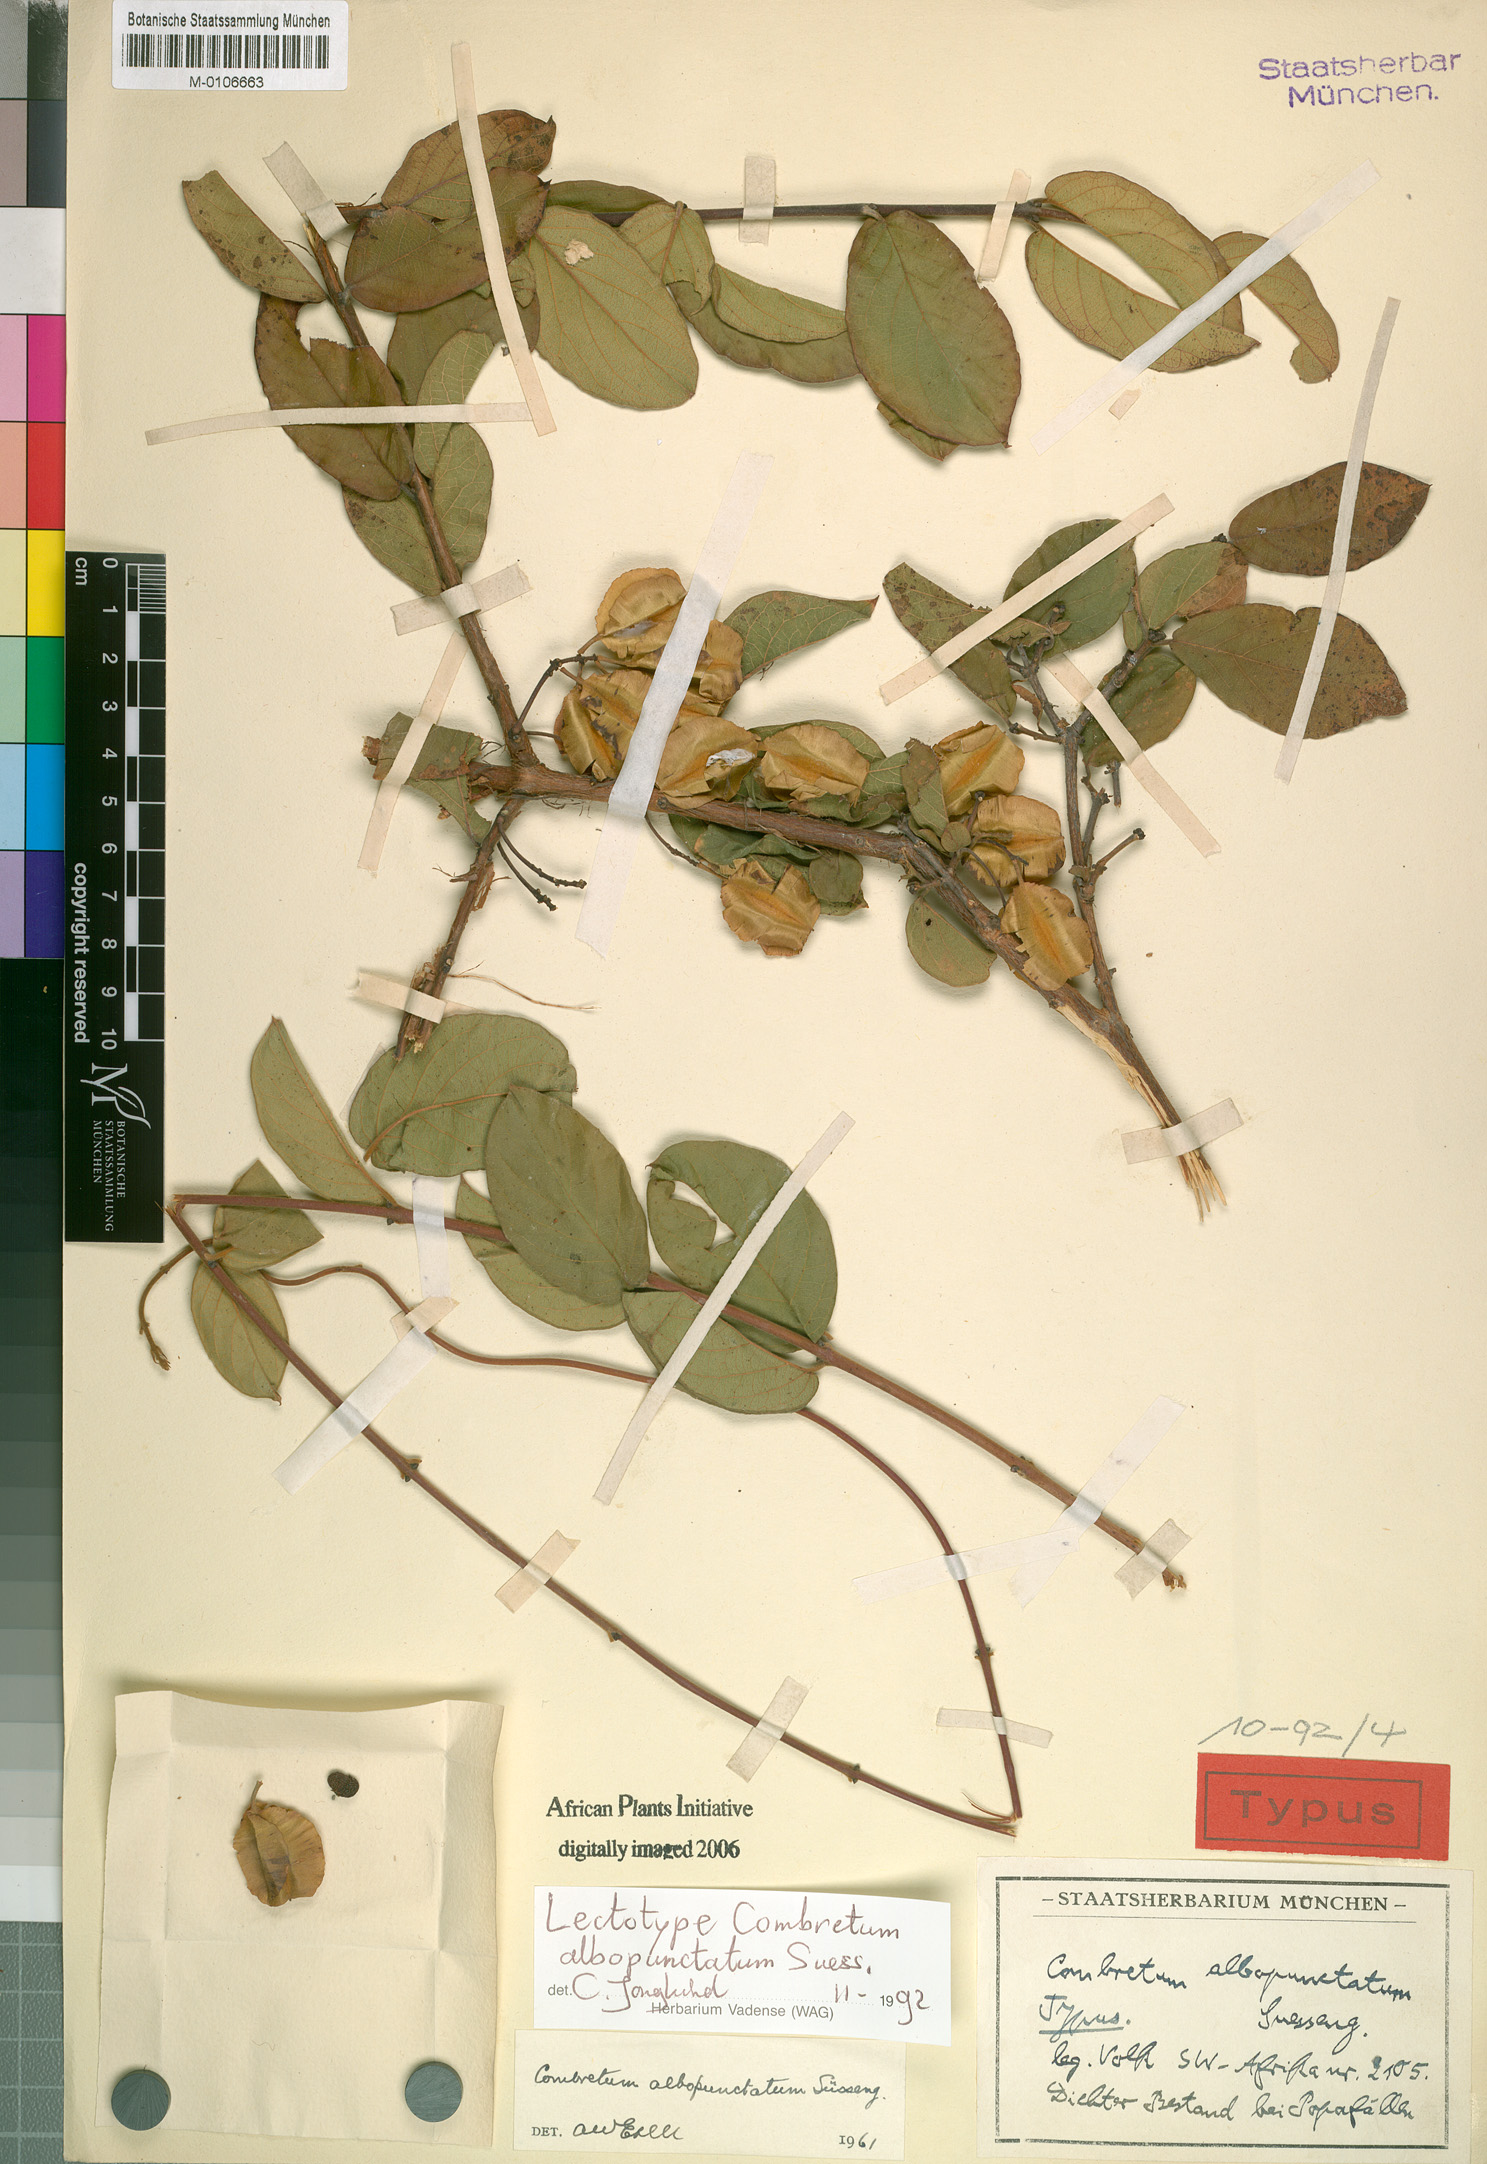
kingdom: Plantae
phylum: Tracheophyta
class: Magnoliopsida
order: Myrtales
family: Combretaceae
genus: Combretum
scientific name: Combretum albopunctatum
